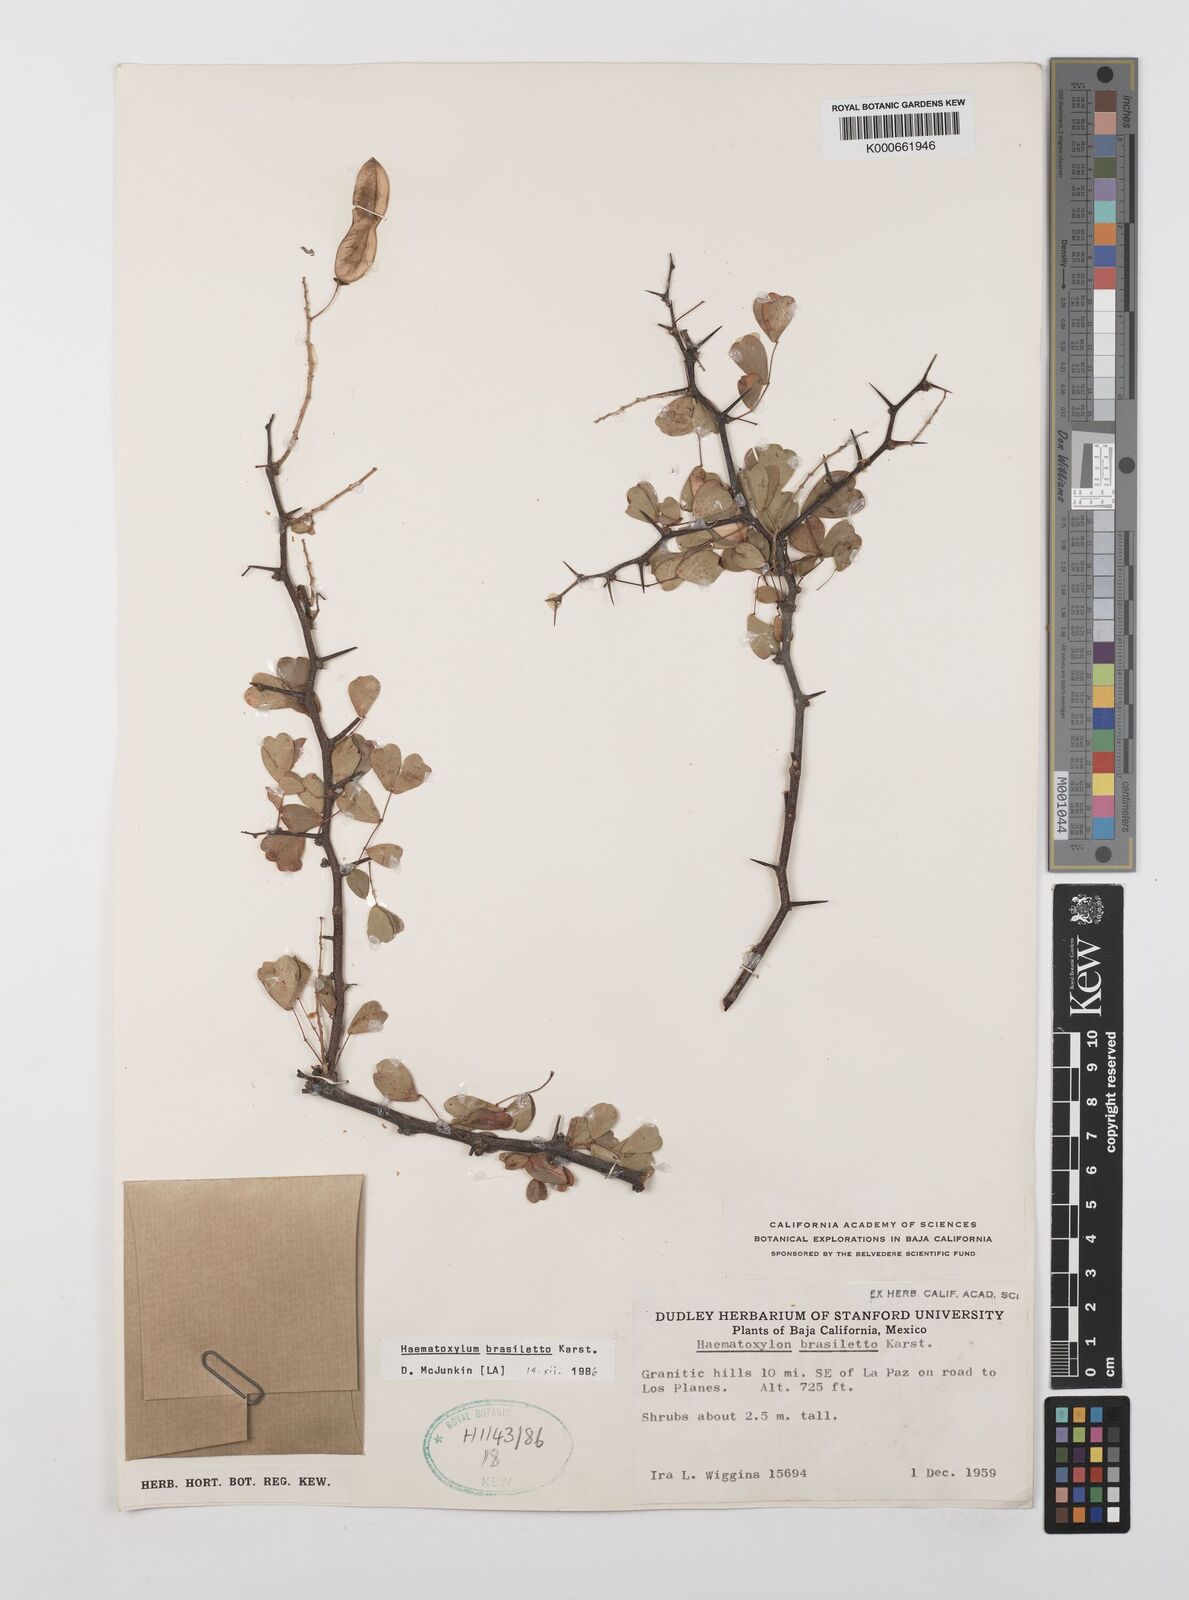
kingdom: Plantae
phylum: Tracheophyta
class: Magnoliopsida
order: Fabales
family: Fabaceae
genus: Haematoxylum
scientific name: Haematoxylum brasiletto
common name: Peachwood
